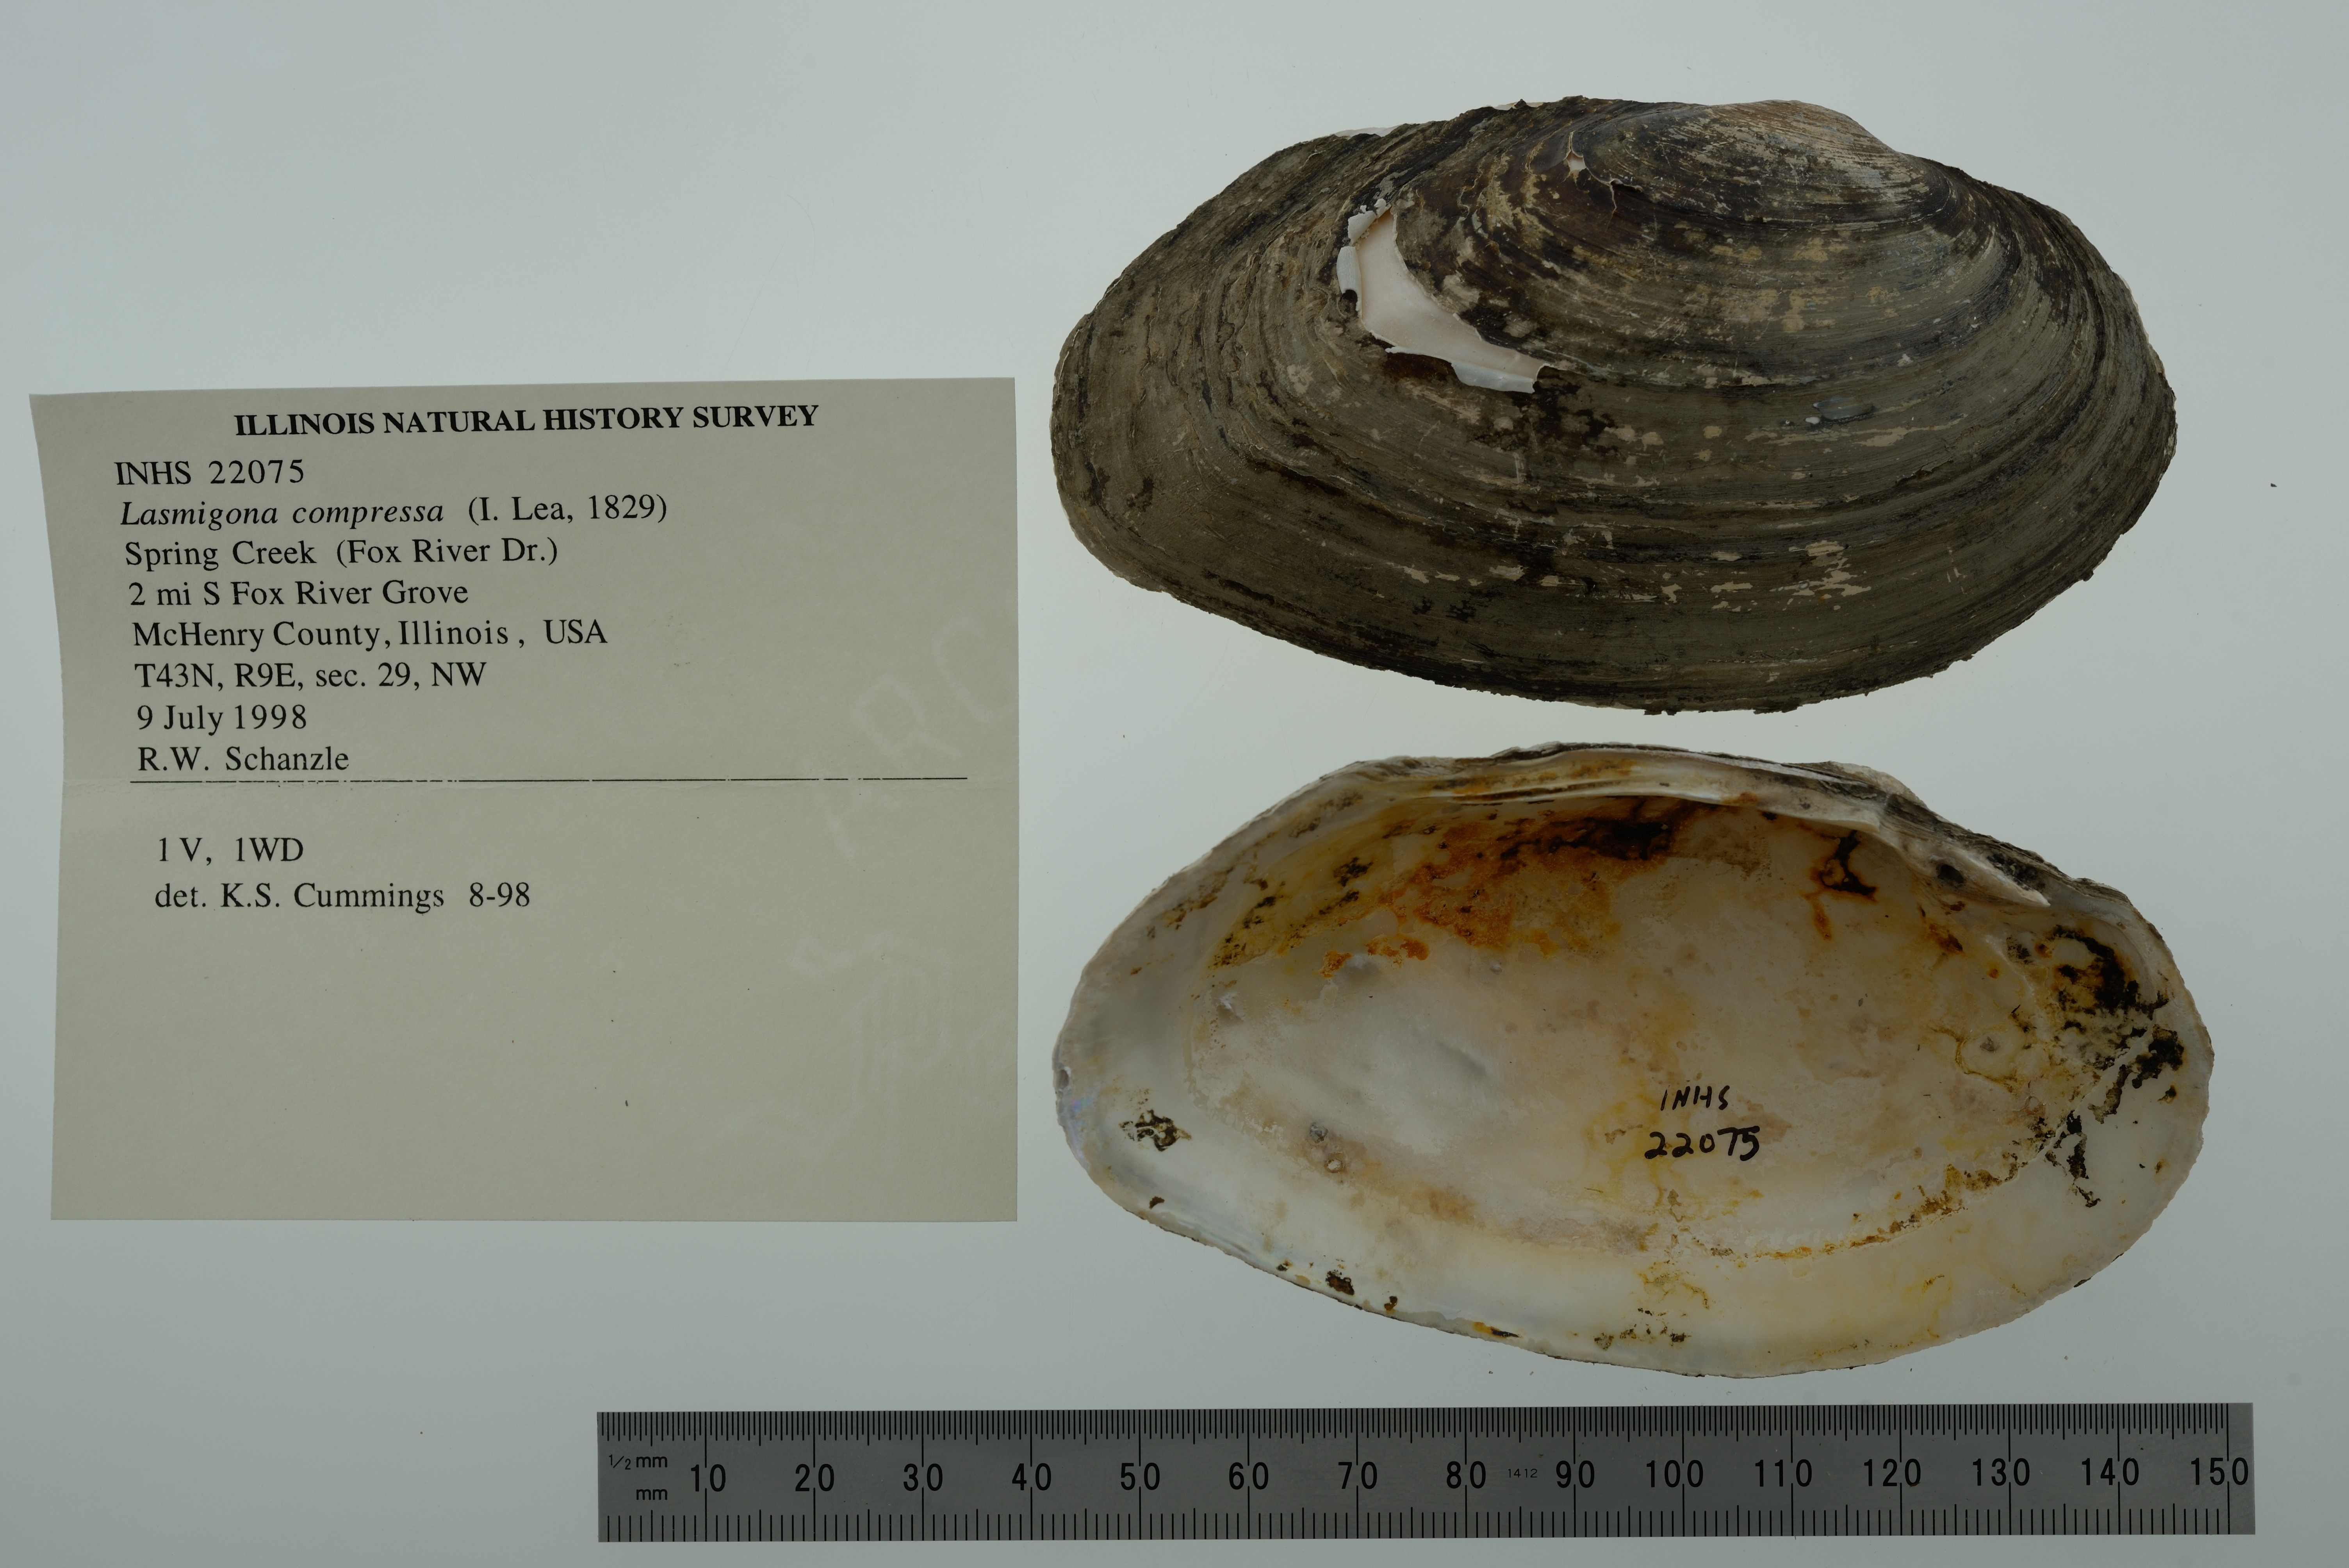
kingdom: Animalia
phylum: Mollusca
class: Bivalvia
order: Unionida
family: Unionidae
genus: Lasmigona
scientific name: Lasmigona compressa
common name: Creek heelsplitter
